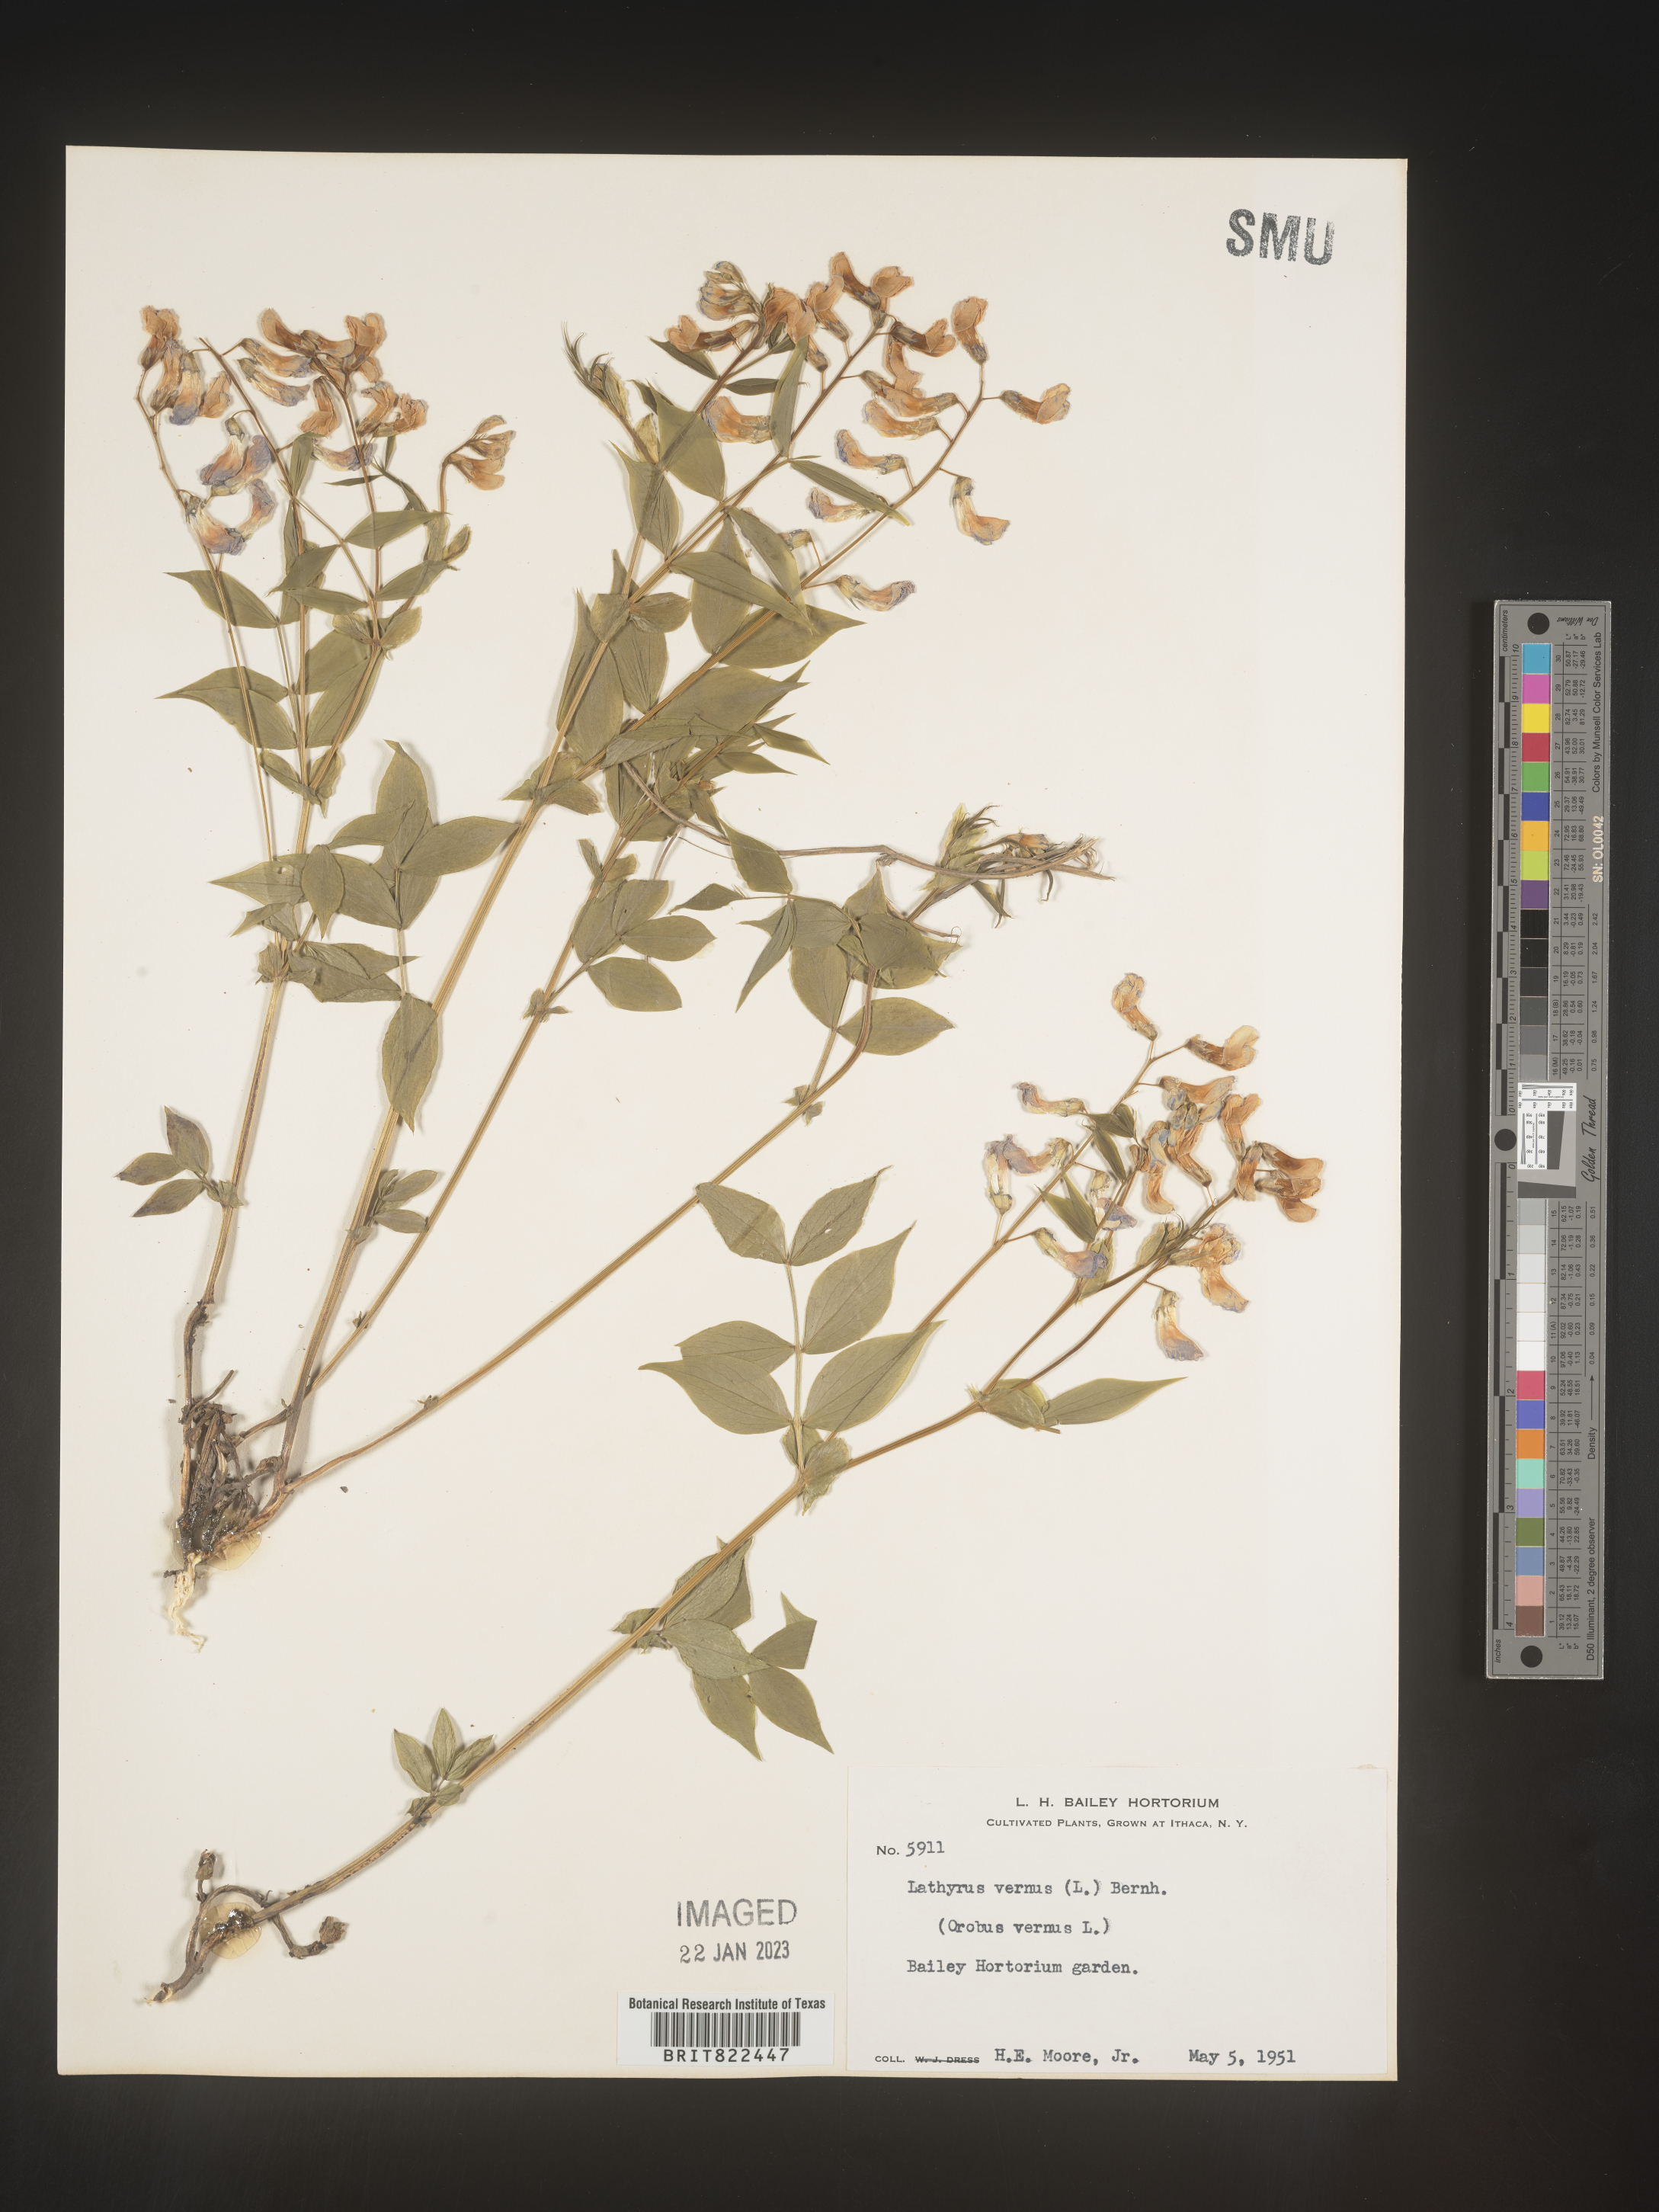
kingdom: Plantae
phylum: Tracheophyta
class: Magnoliopsida
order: Fabales
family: Fabaceae
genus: Lathyrus
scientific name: Lathyrus
